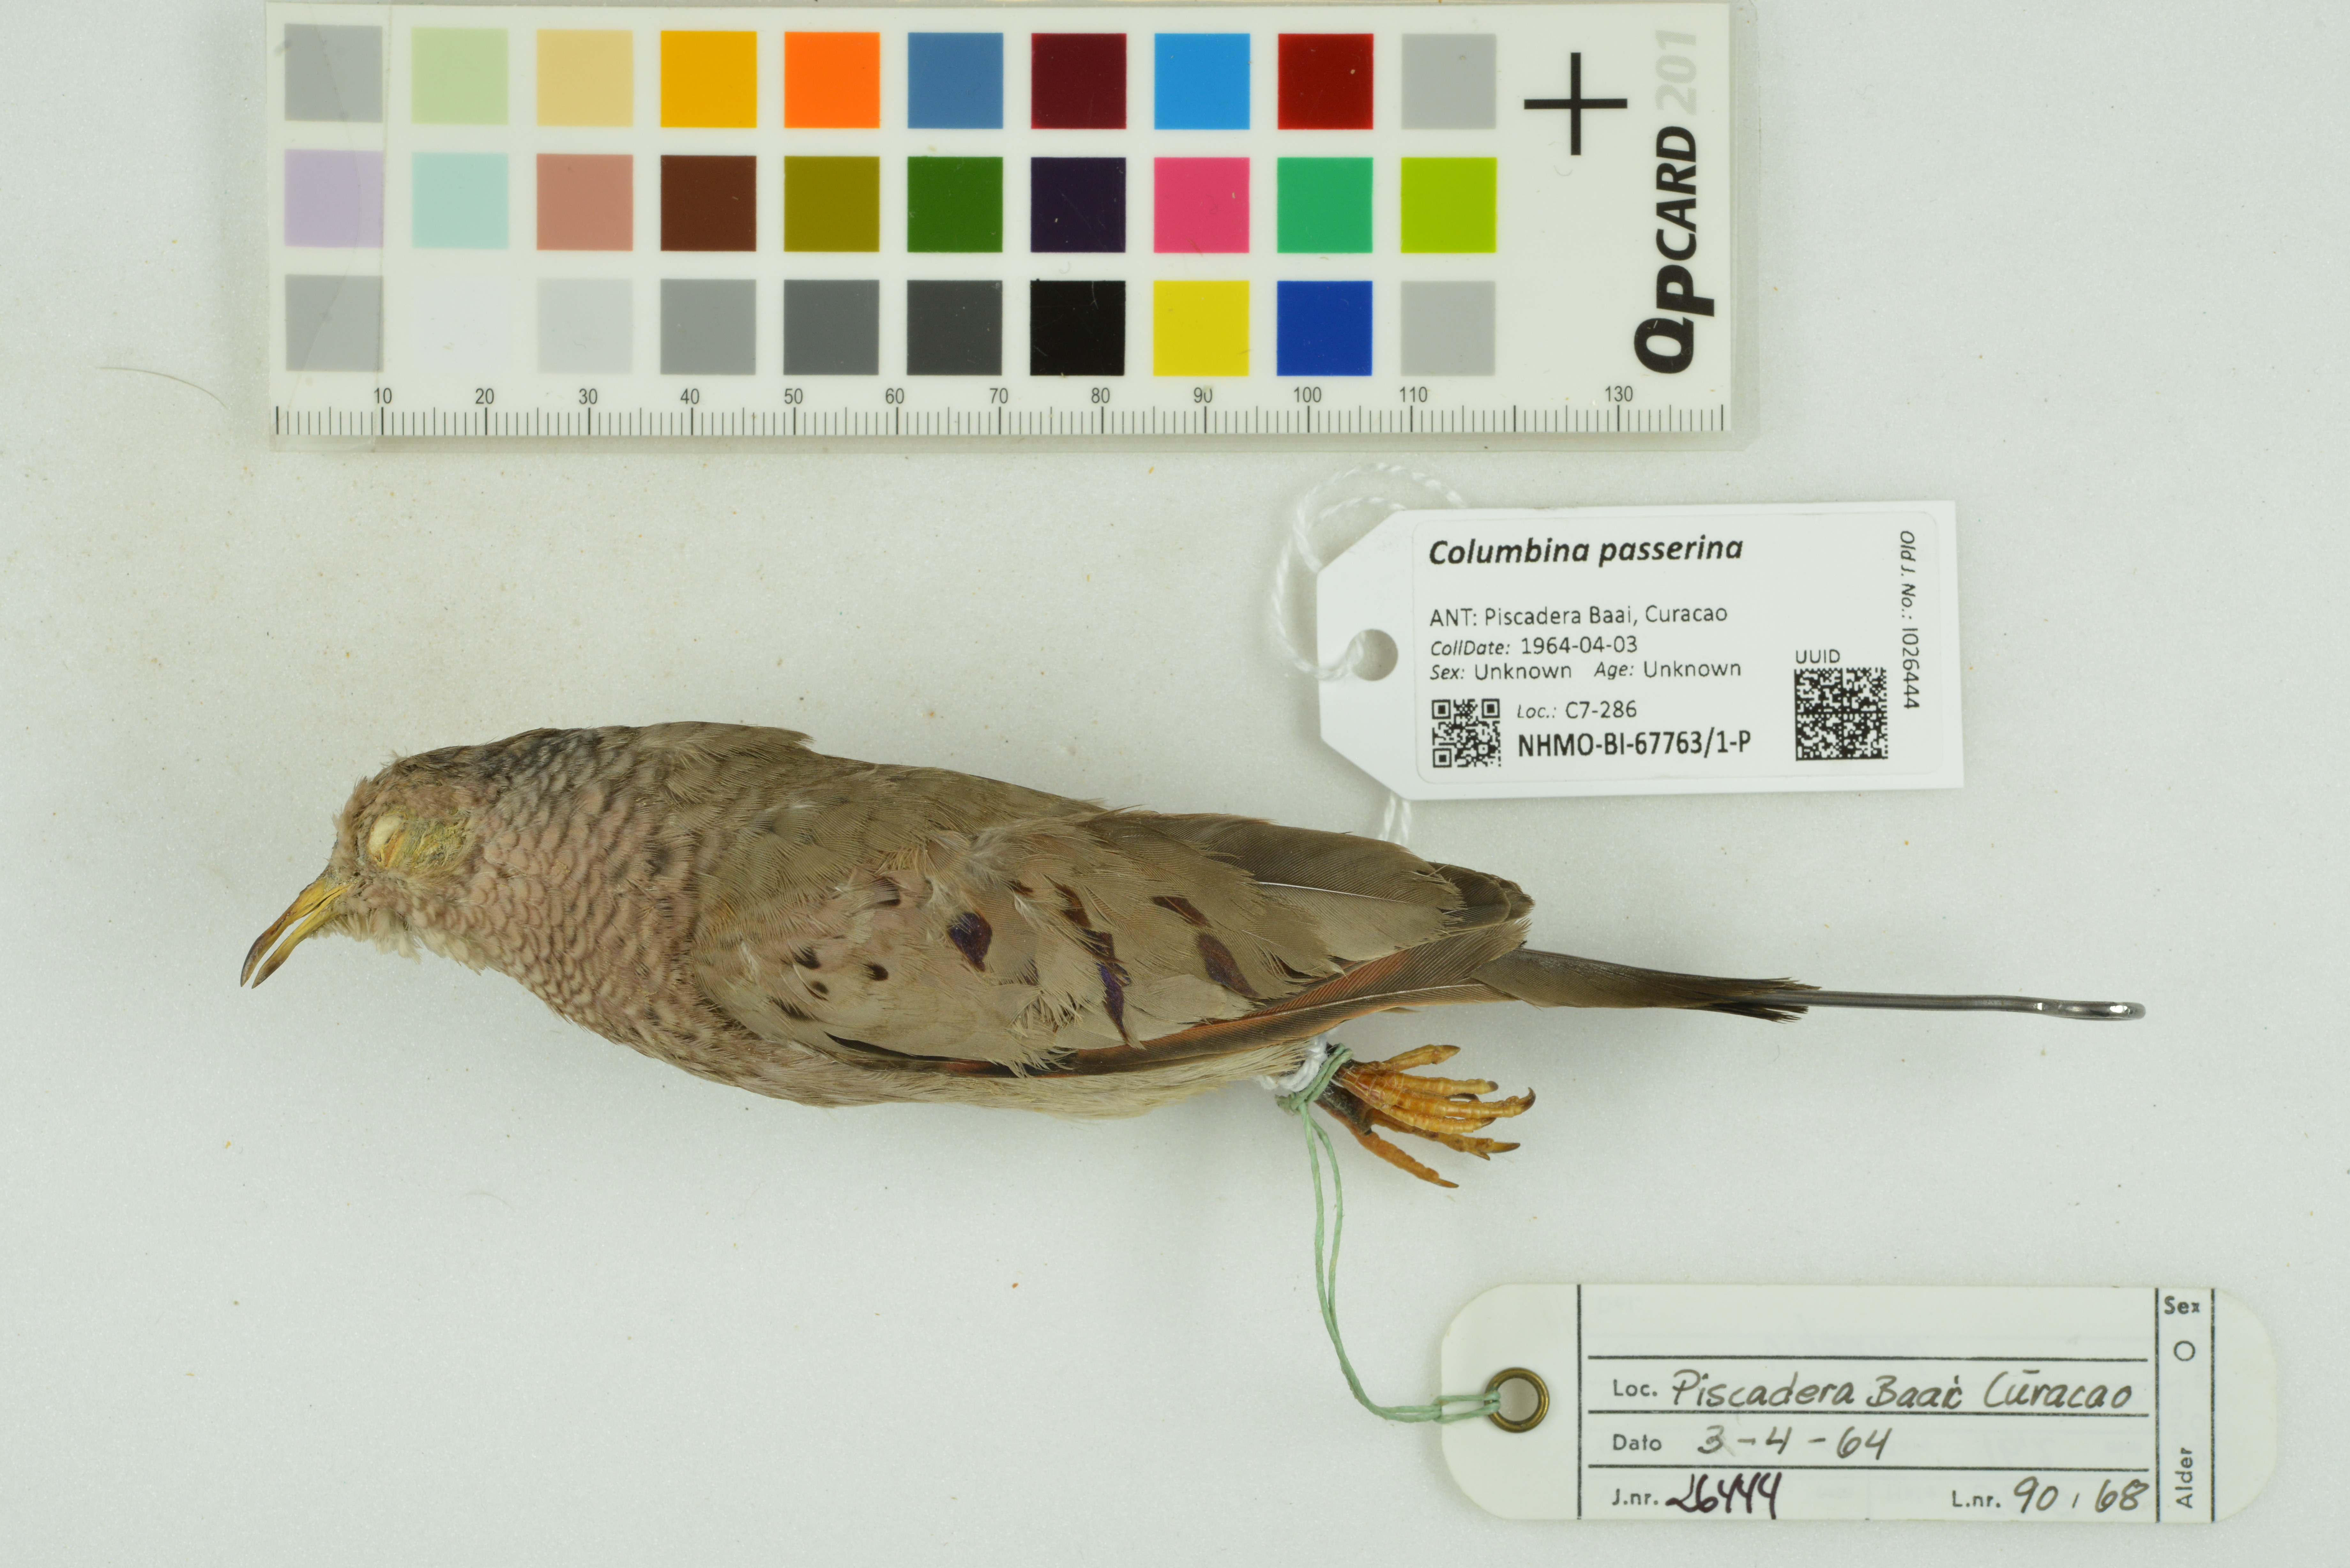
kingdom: Animalia
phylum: Chordata
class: Aves
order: Columbiformes
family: Columbidae
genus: Columbina
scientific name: Columbina passerina
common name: Common ground-dove
